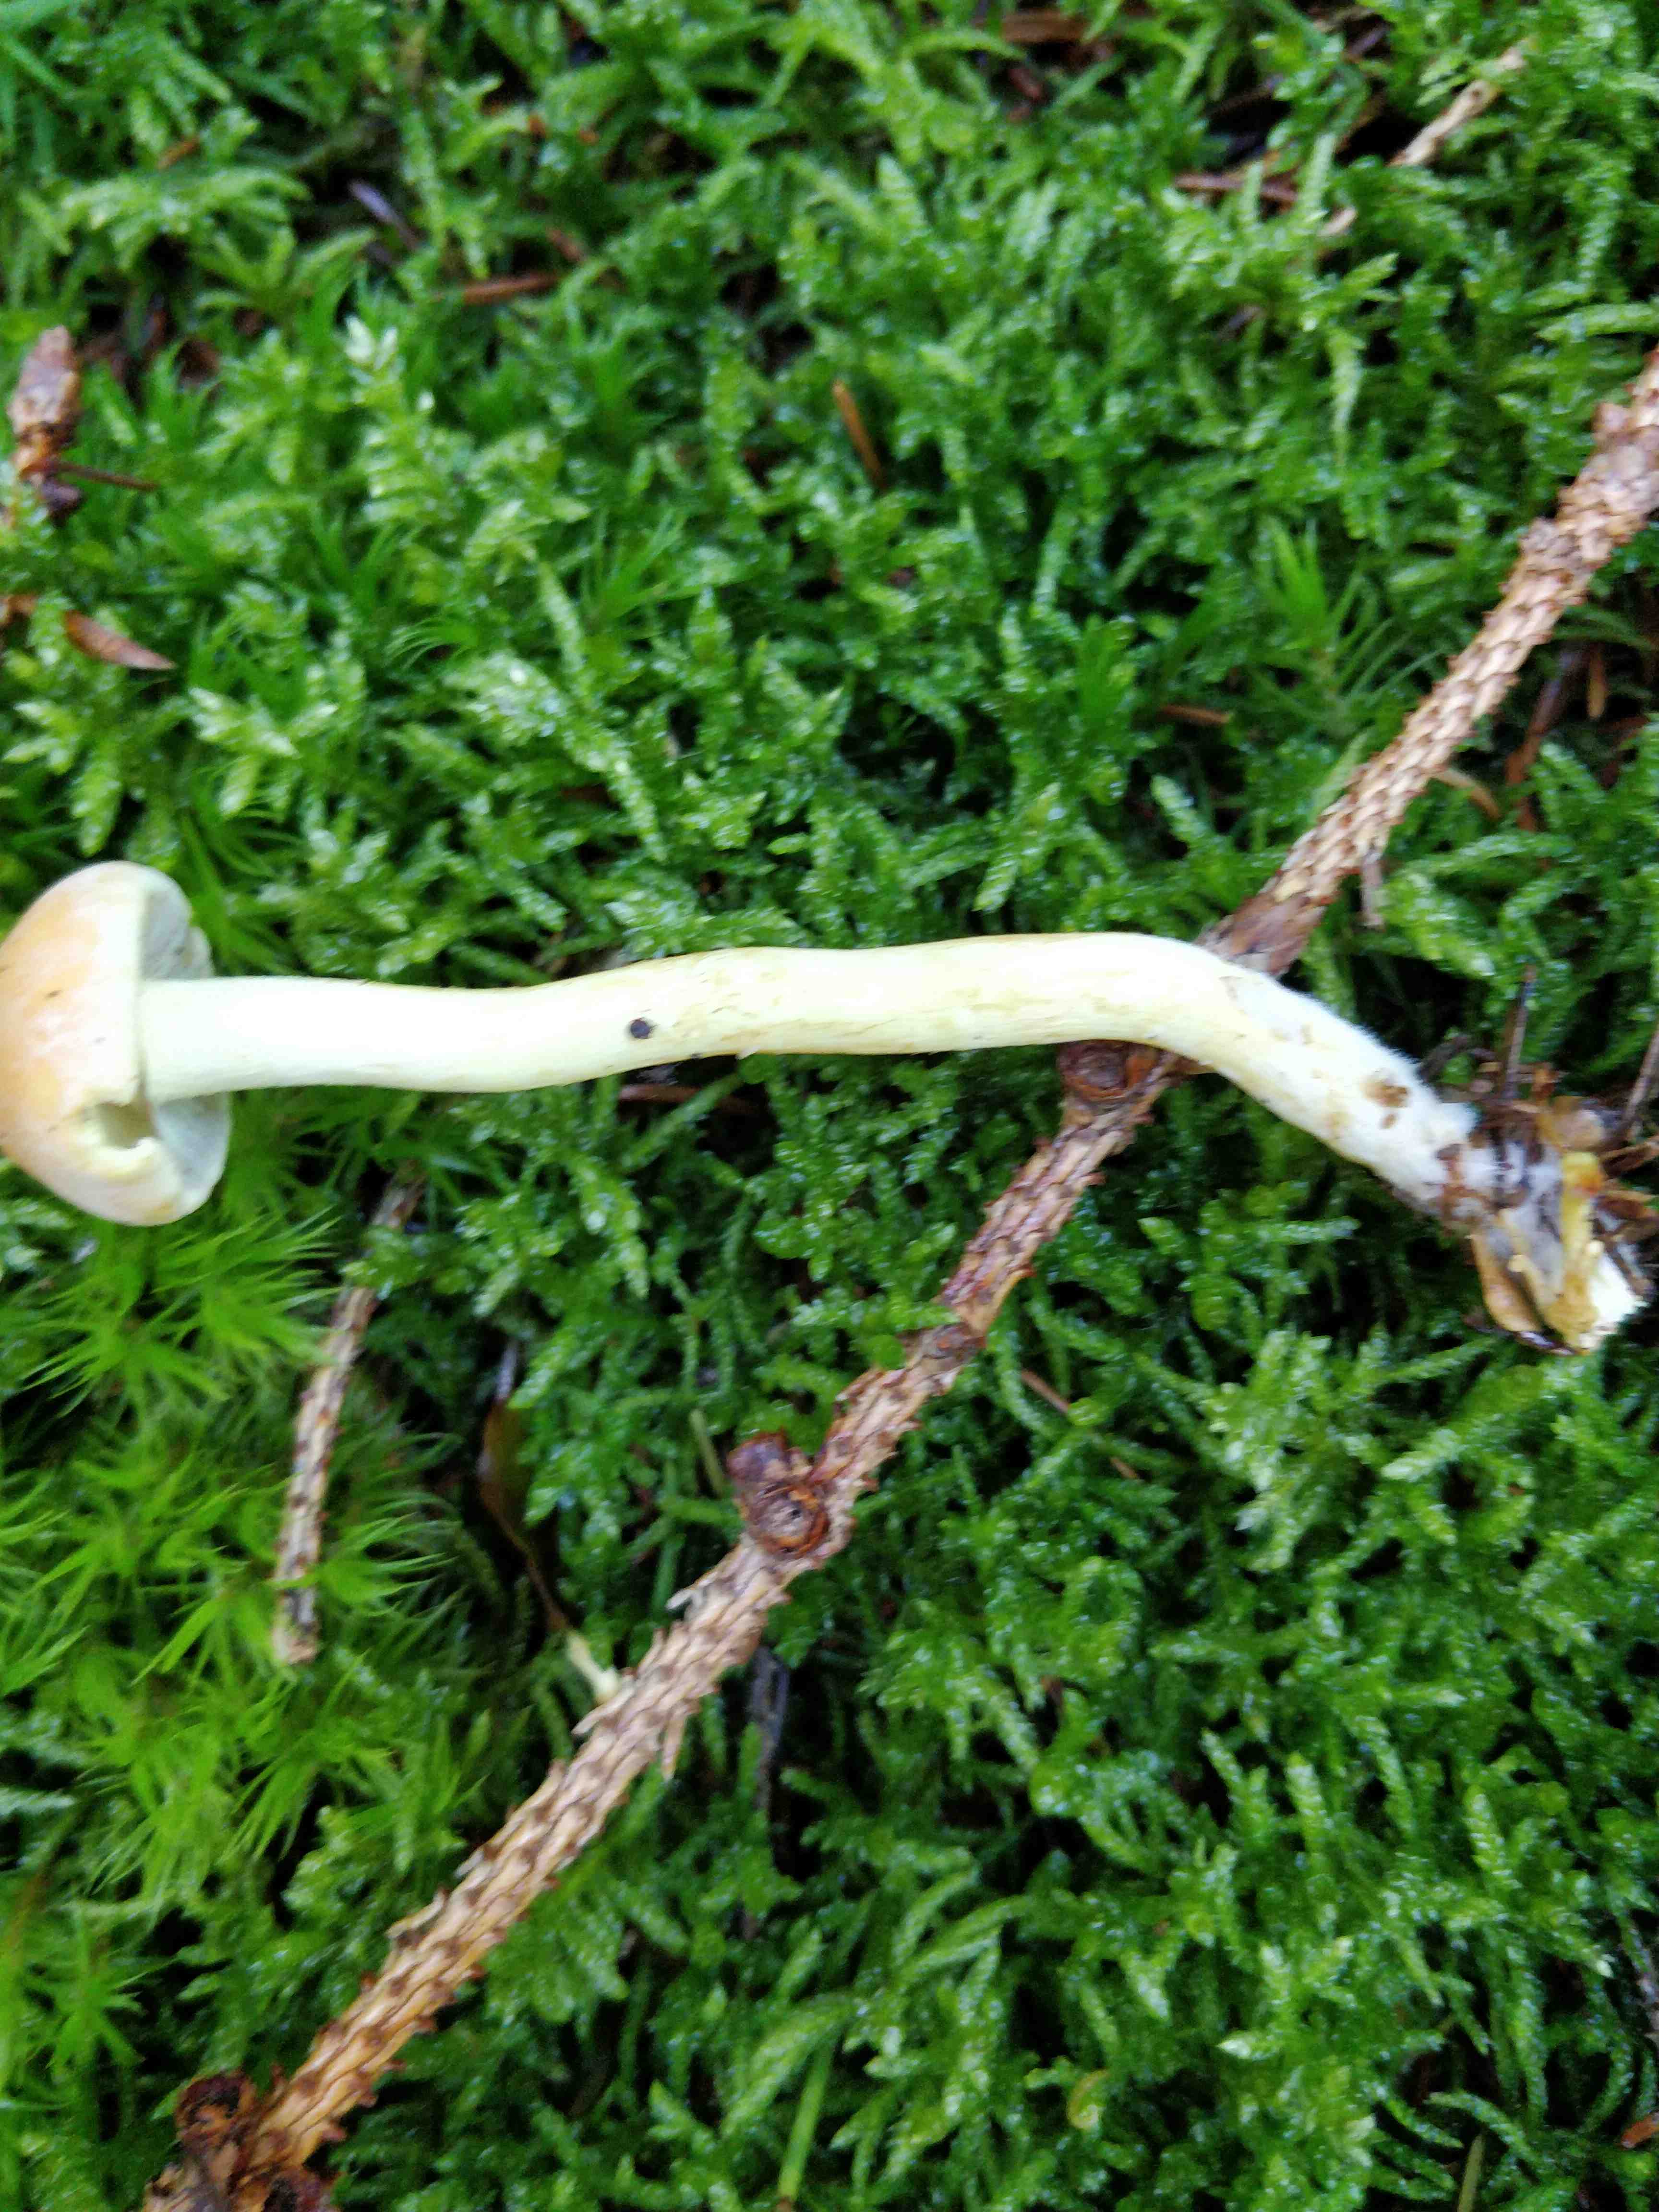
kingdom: Fungi
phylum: Basidiomycota
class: Agaricomycetes
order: Agaricales
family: Strophariaceae
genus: Hypholoma
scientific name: Hypholoma
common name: svovlhat
